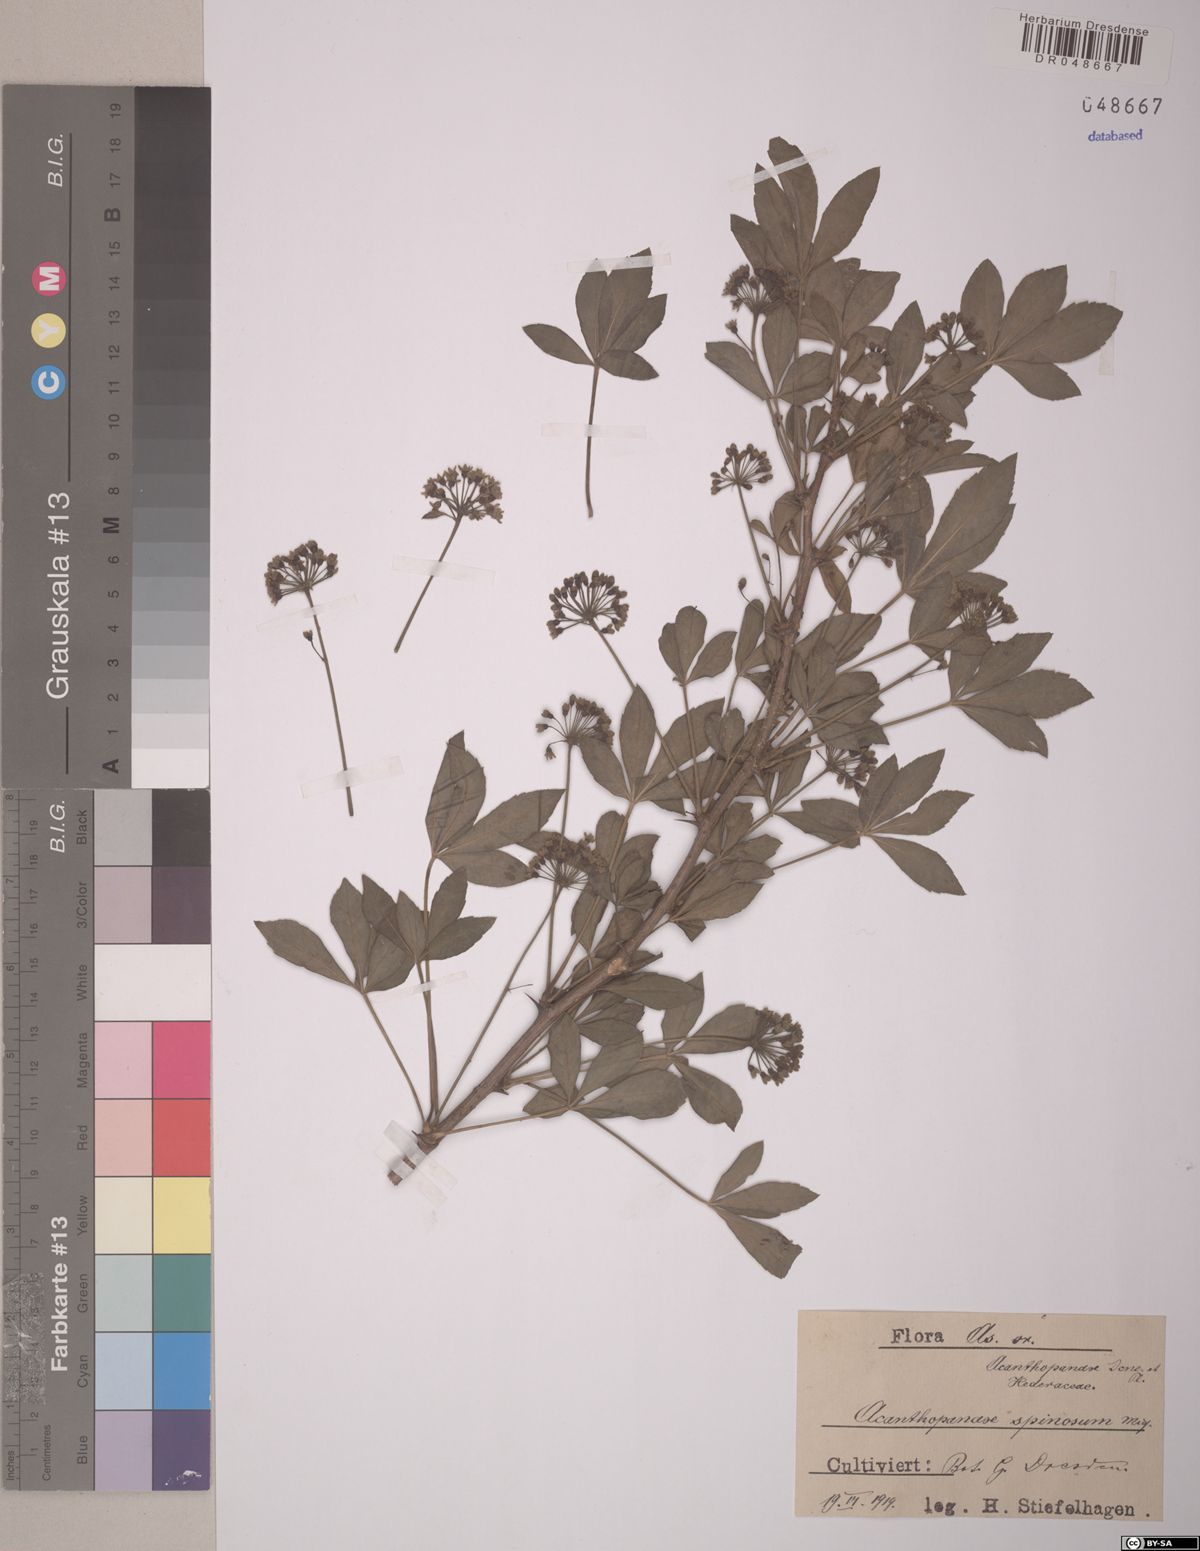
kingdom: Plantae
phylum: Tracheophyta
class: Magnoliopsida
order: Apiales
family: Araliaceae
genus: Eleutherococcus
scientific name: Eleutherococcus spinosus
